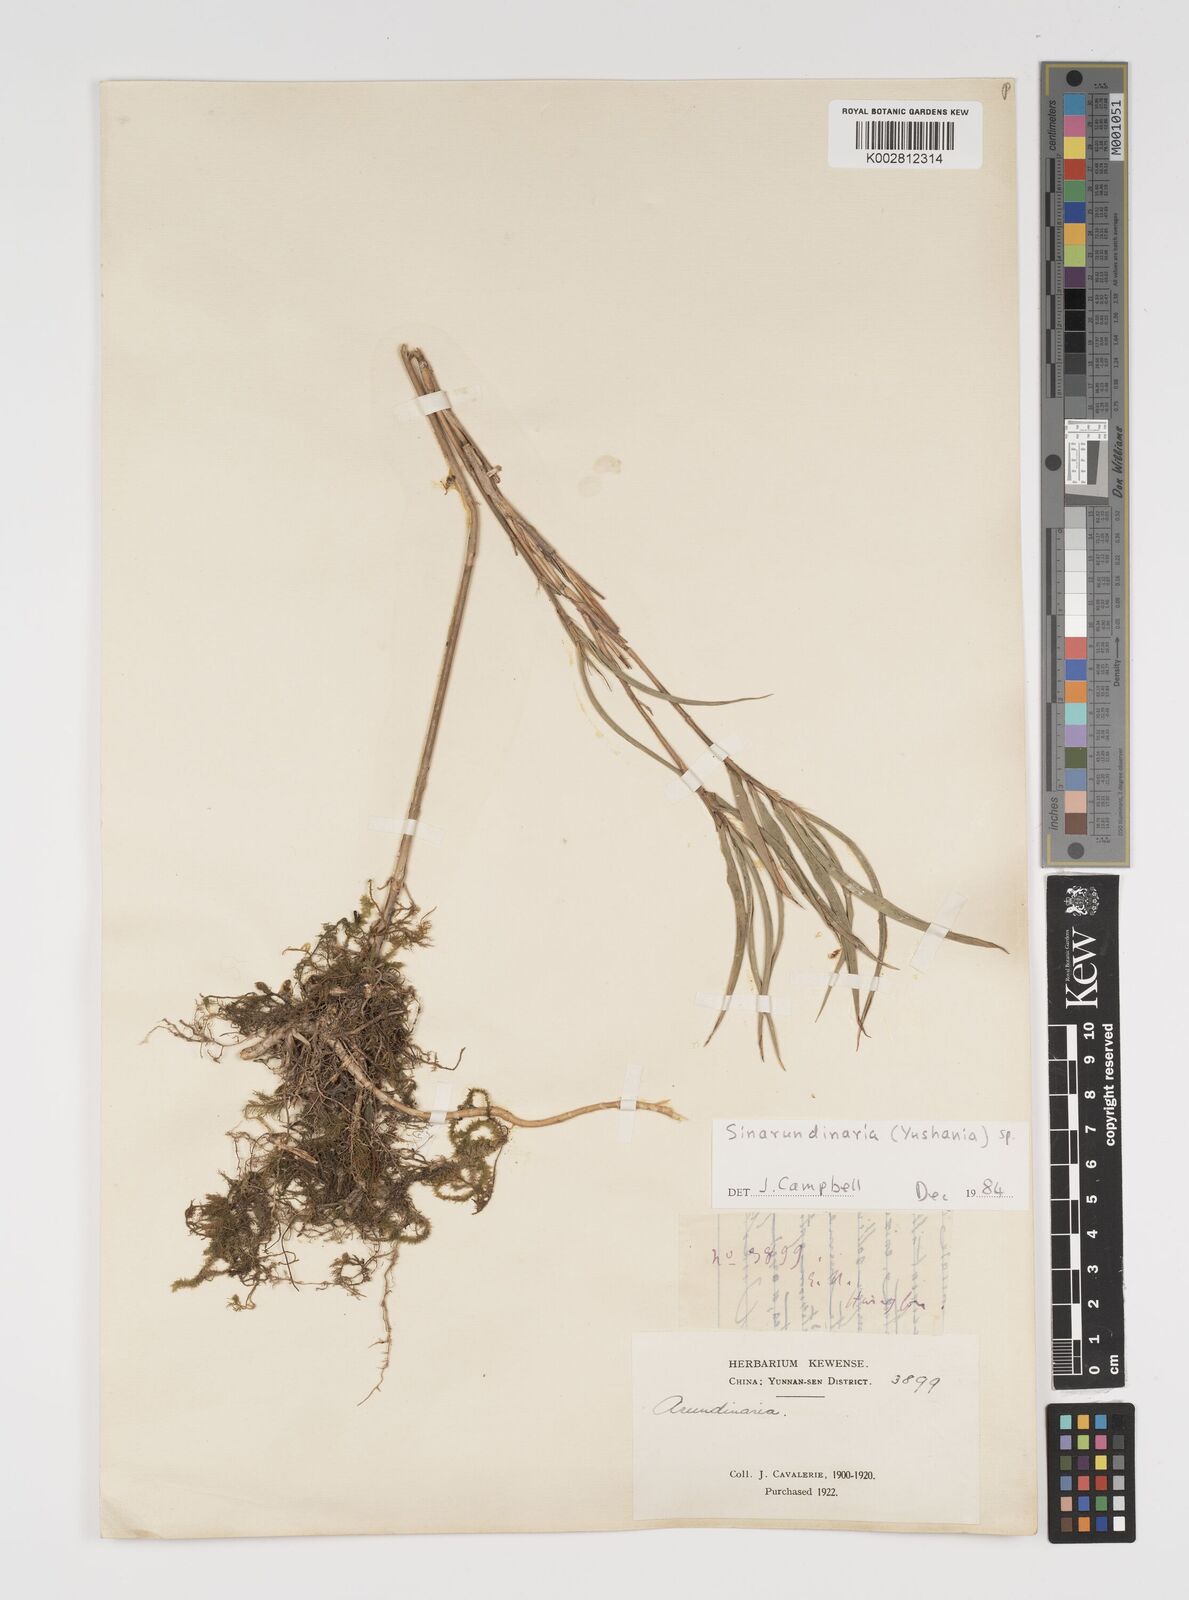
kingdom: Plantae
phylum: Tracheophyta
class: Liliopsida
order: Poales
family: Poaceae
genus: Yushania
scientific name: Yushania
